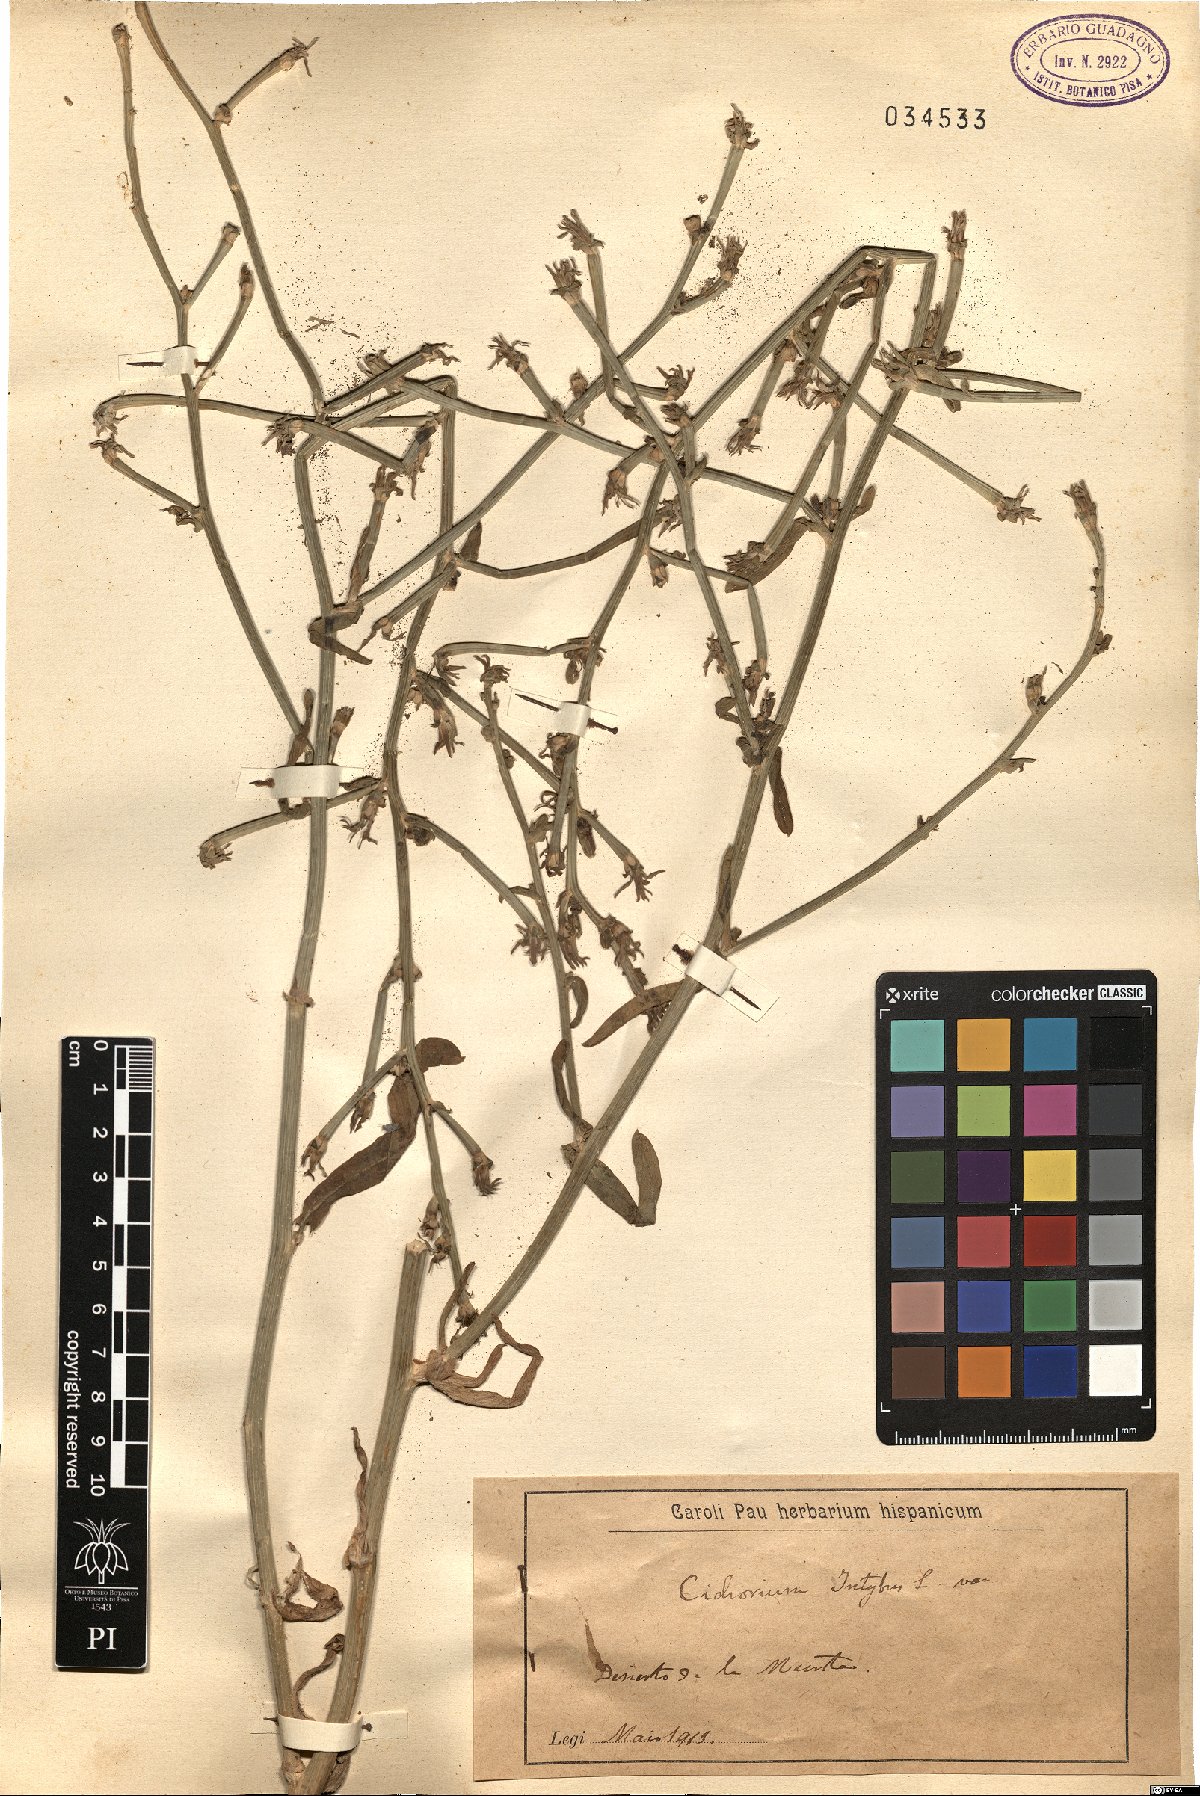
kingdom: Plantae
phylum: Tracheophyta
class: Magnoliopsida
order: Asterales
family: Asteraceae
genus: Cichorium
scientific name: Cichorium intybus
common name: Chicory
